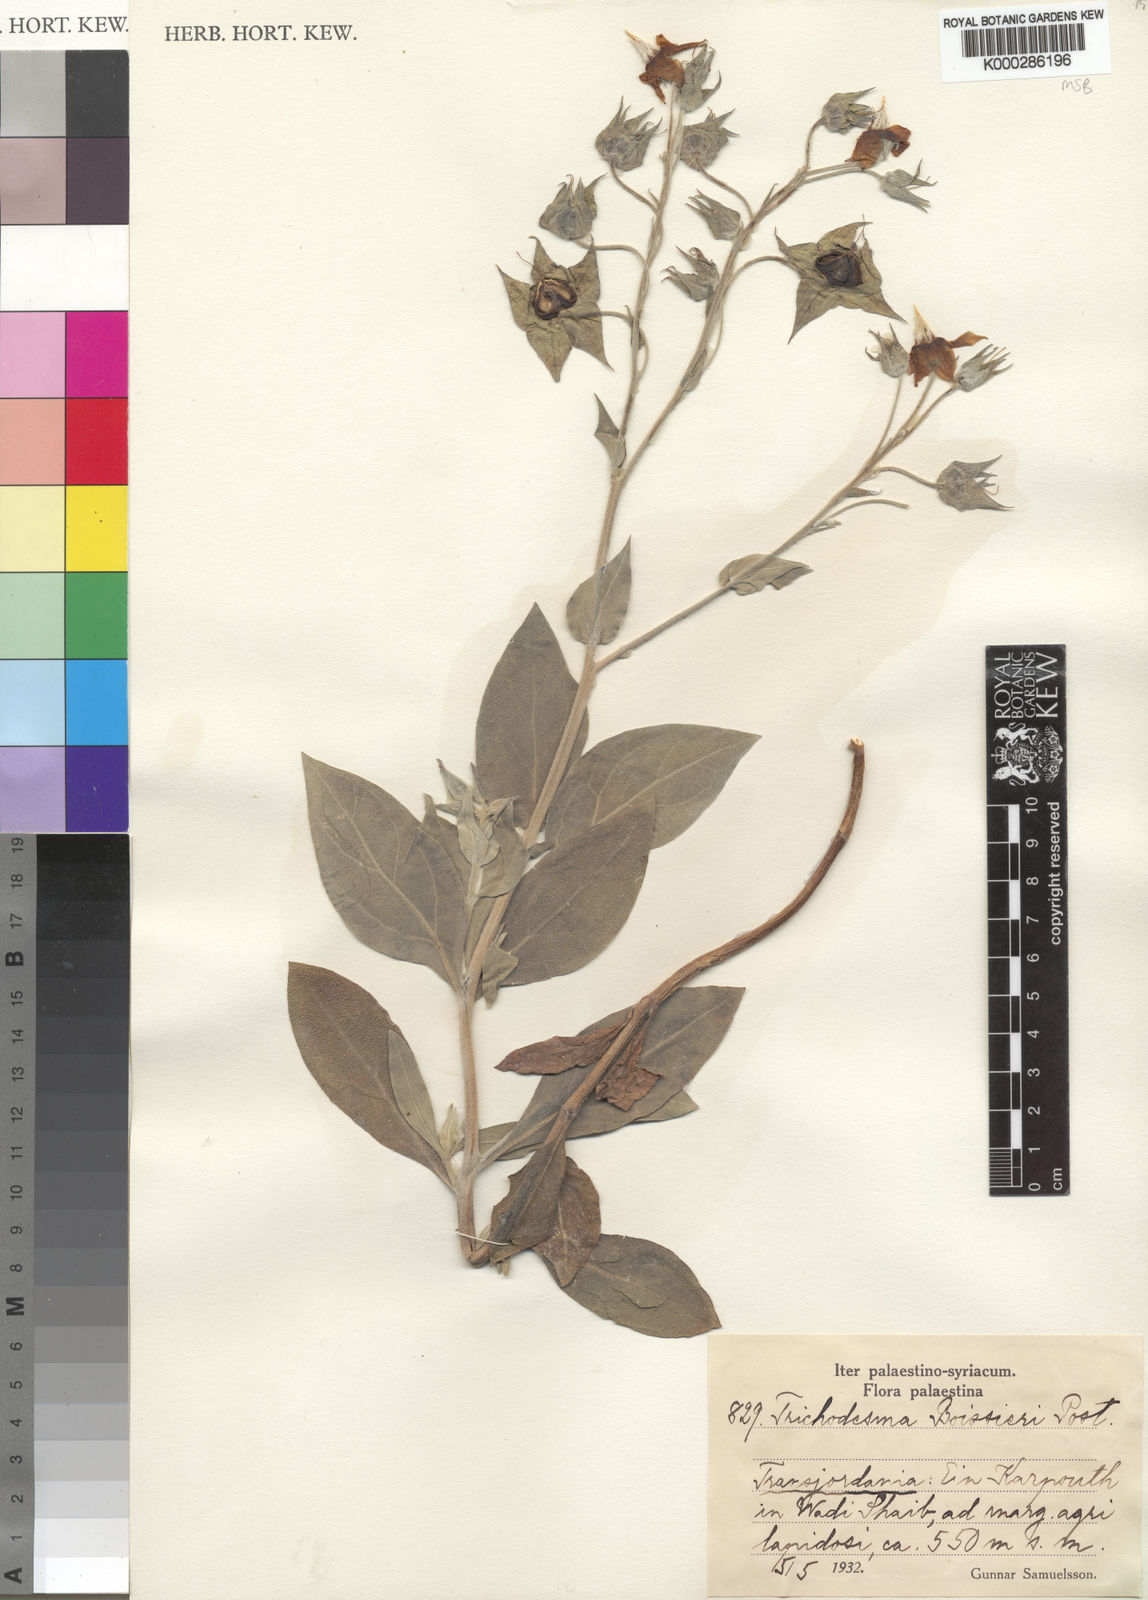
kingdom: Plantae
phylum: Tracheophyta
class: Magnoliopsida
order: Boraginales
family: Boraginaceae
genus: Trichodesma
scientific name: Trichodesma boissieri
